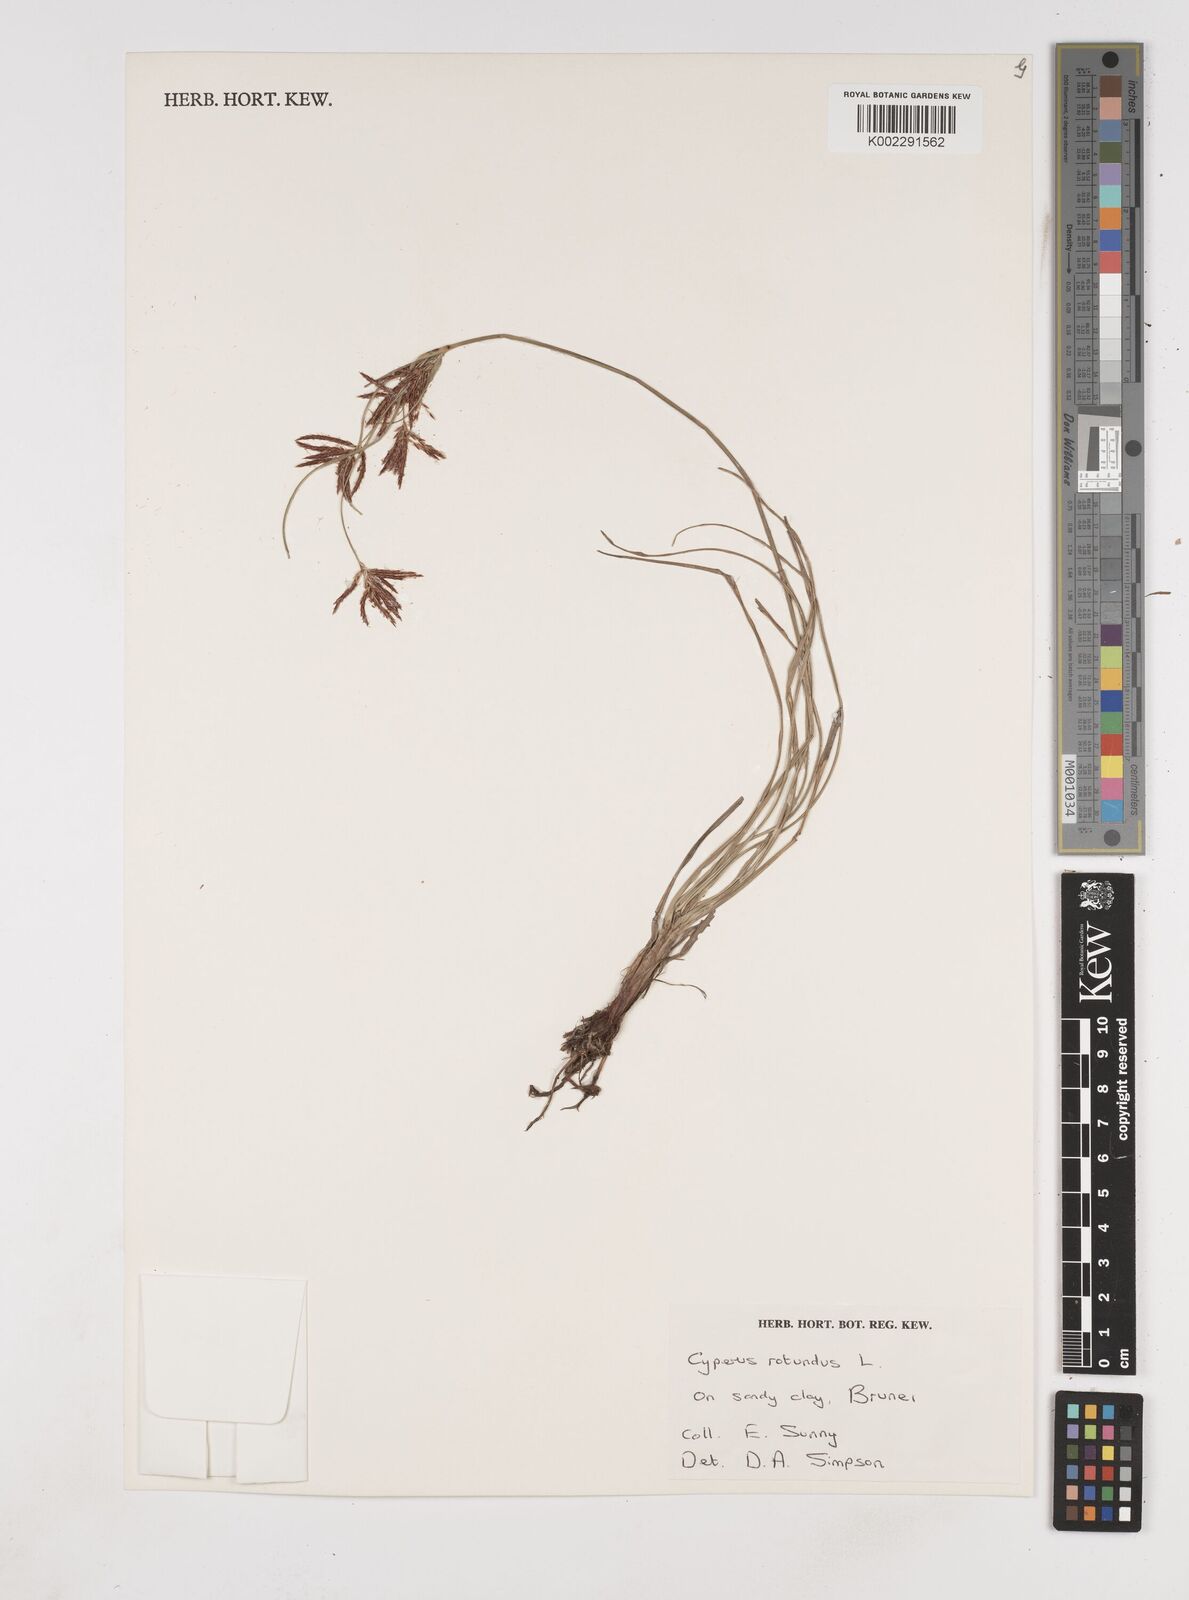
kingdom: Plantae
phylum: Tracheophyta
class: Liliopsida
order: Poales
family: Cyperaceae
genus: Cyperus
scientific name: Cyperus rotundus
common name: Nutgrass
